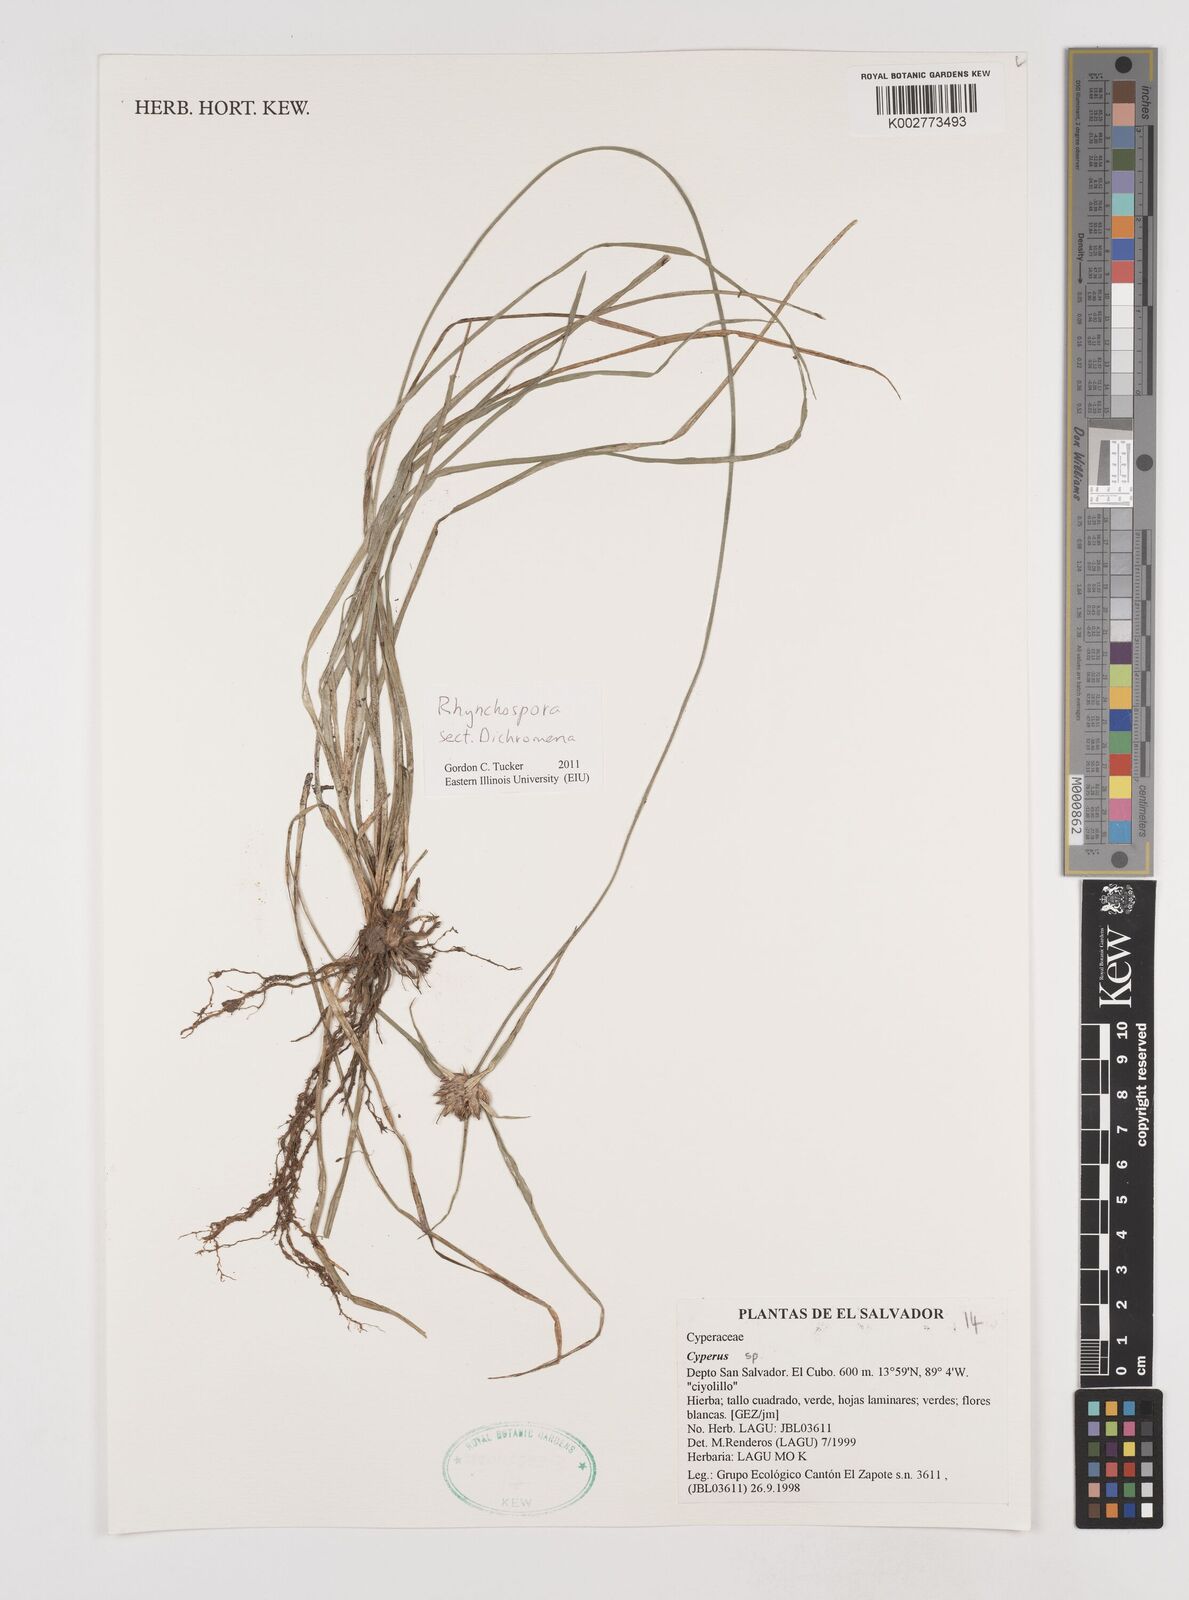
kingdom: Plantae
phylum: Tracheophyta
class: Liliopsida
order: Poales
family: Cyperaceae
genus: Rhynchospora
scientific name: Rhynchospora
